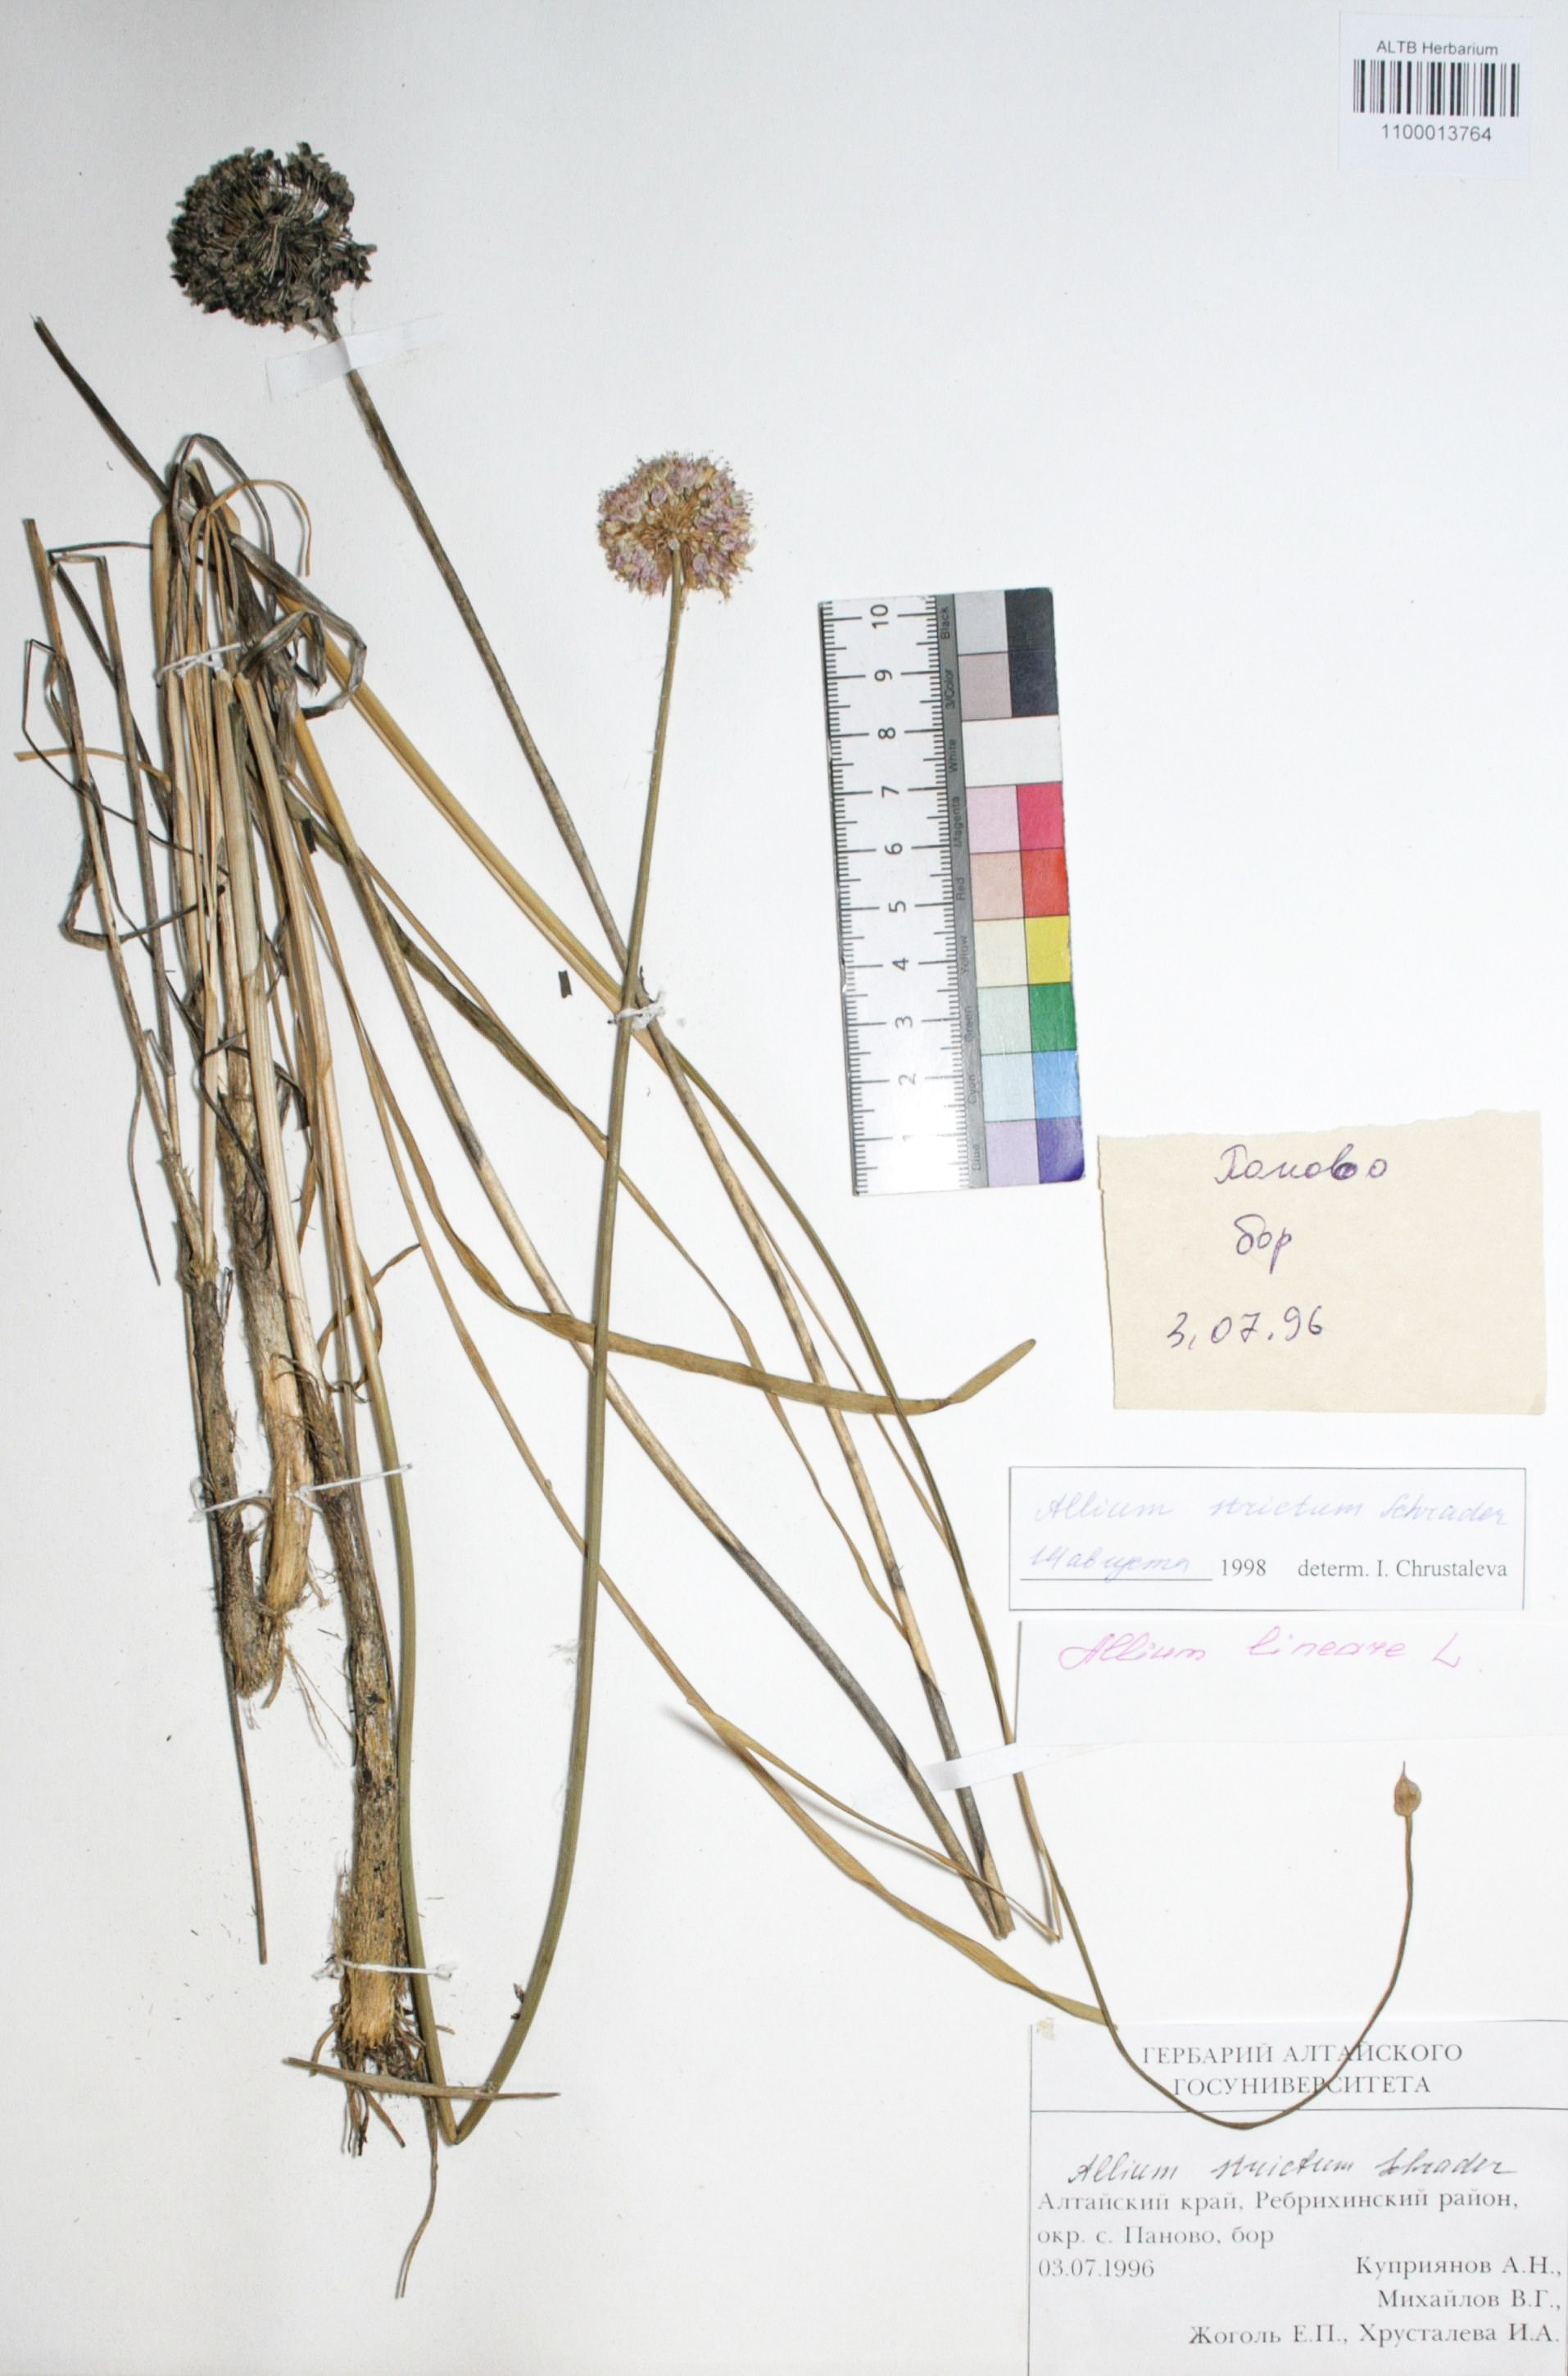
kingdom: Plantae
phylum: Tracheophyta
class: Liliopsida
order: Asparagales
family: Amaryllidaceae
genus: Allium
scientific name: Allium strictum
